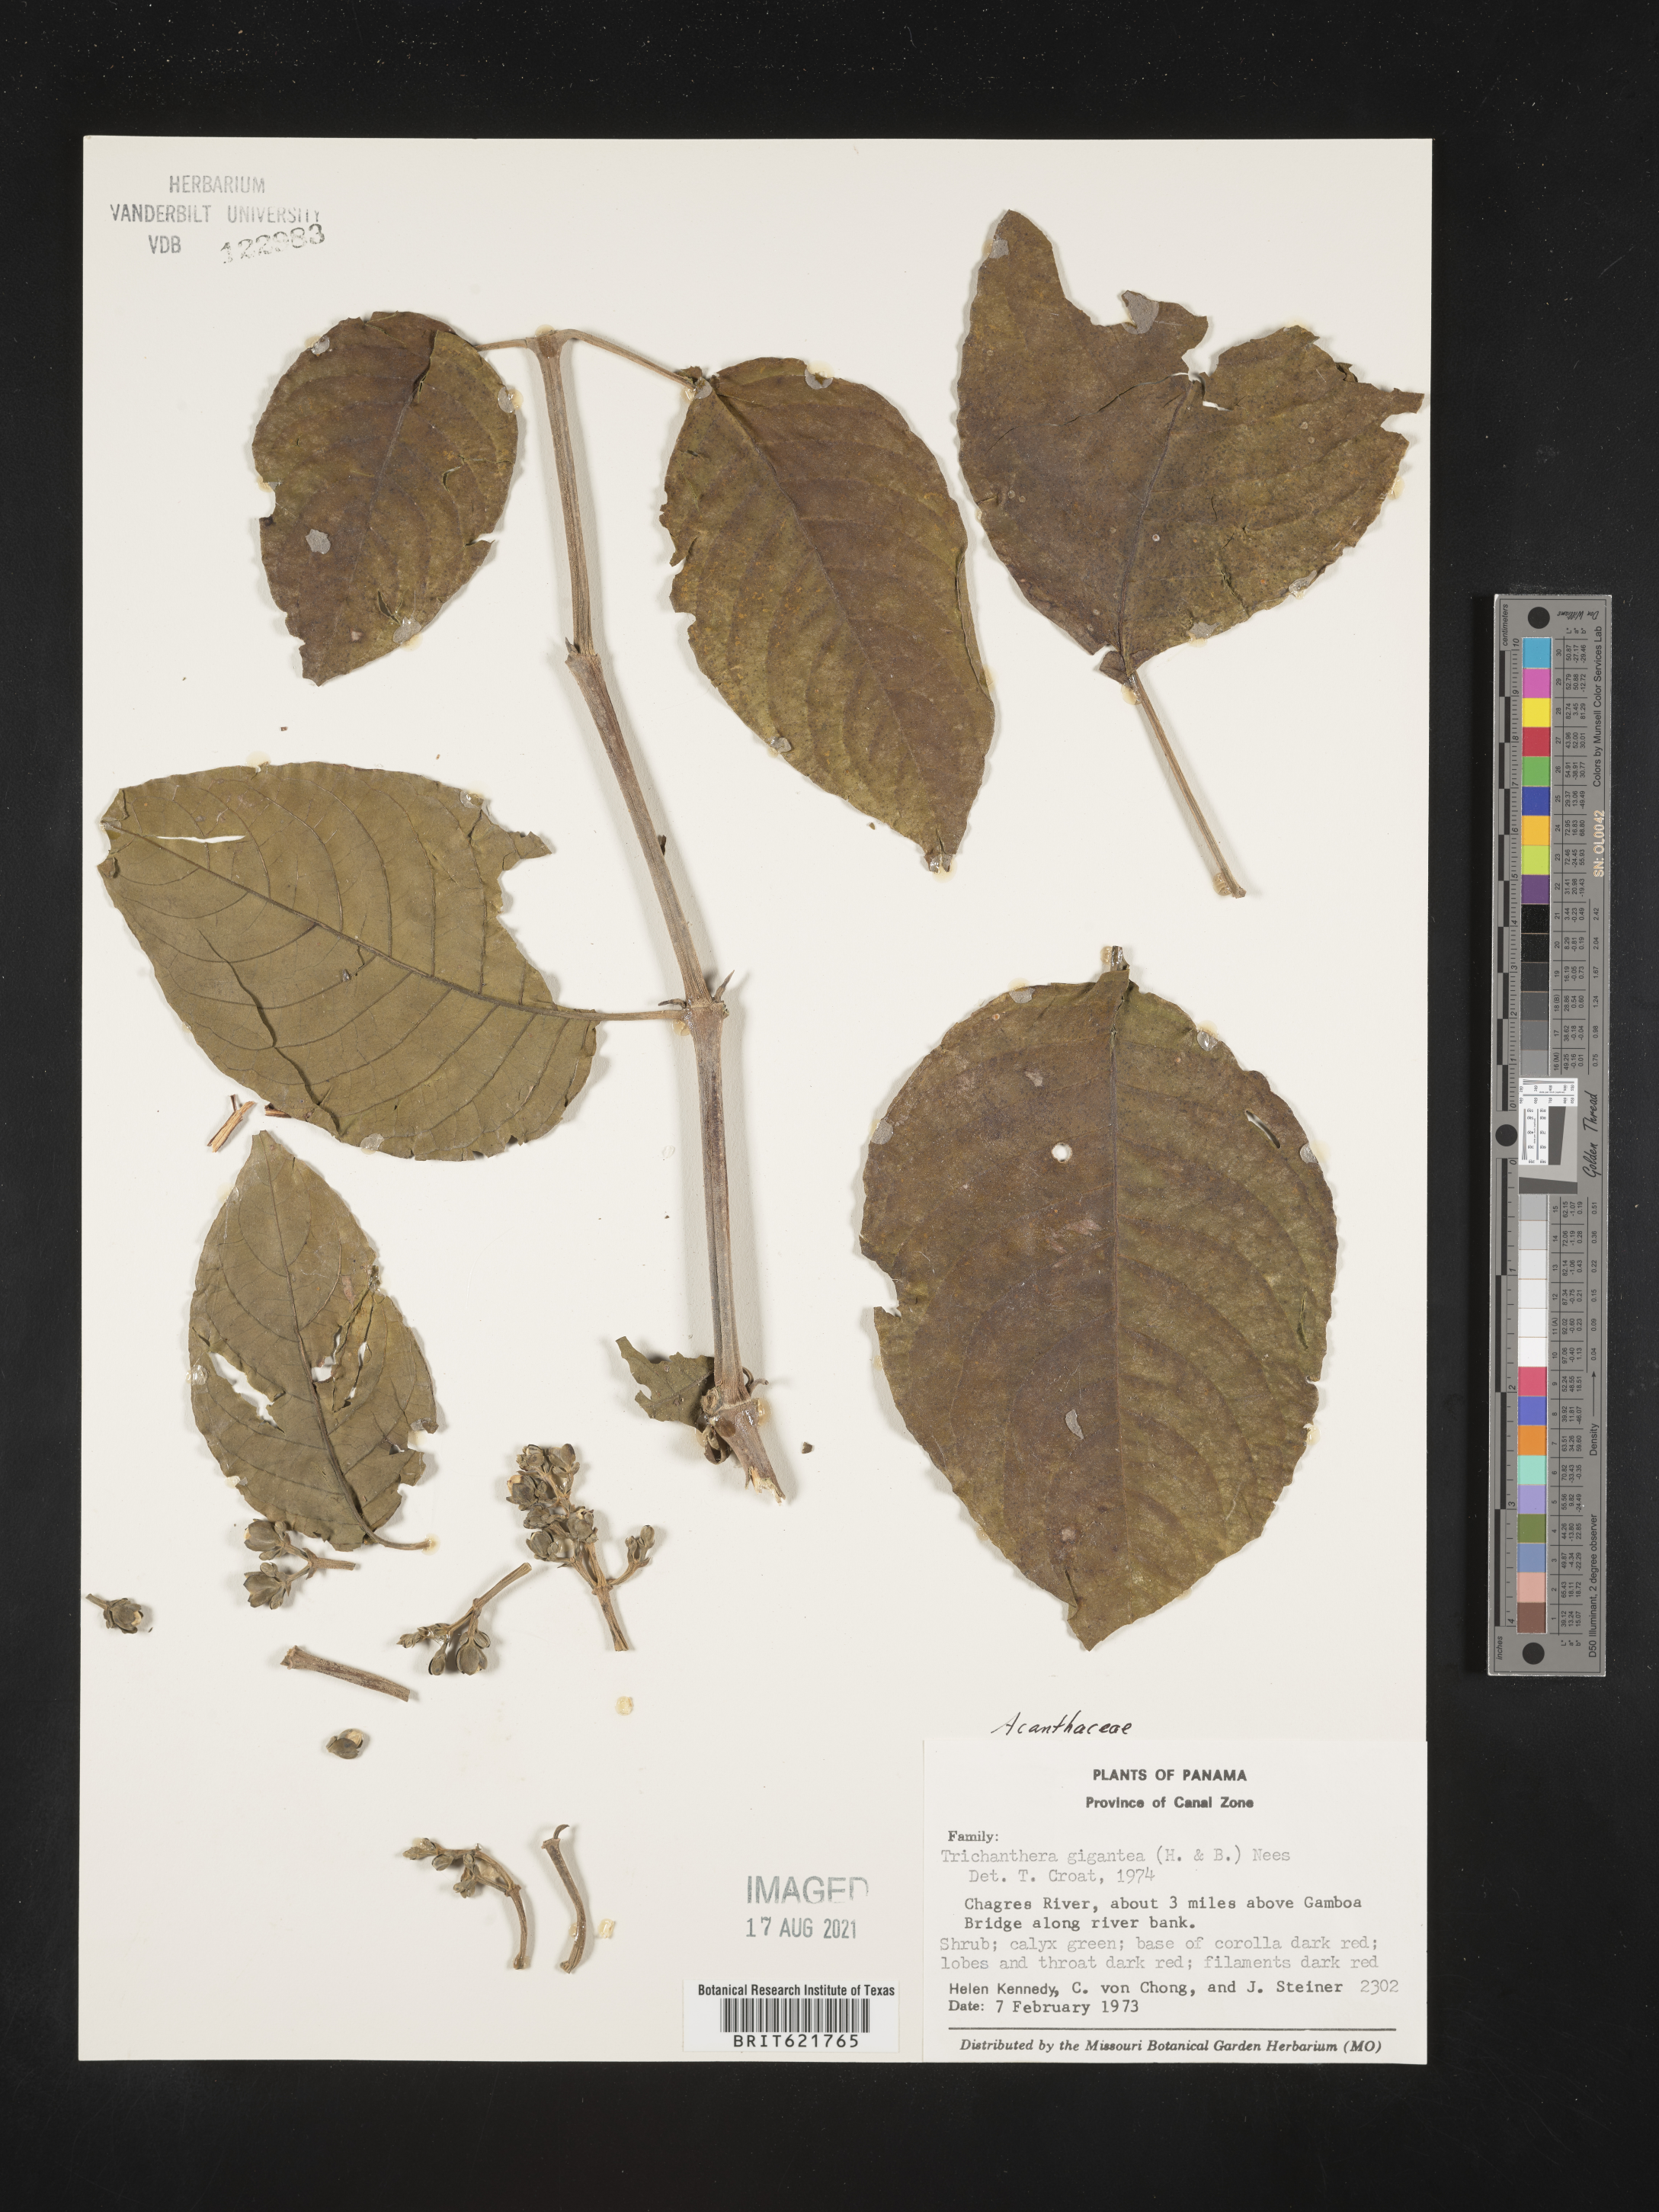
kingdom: Plantae
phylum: Tracheophyta
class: Magnoliopsida
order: Lamiales
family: Acanthaceae
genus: Trichanthera
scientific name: Trichanthera gigantea
